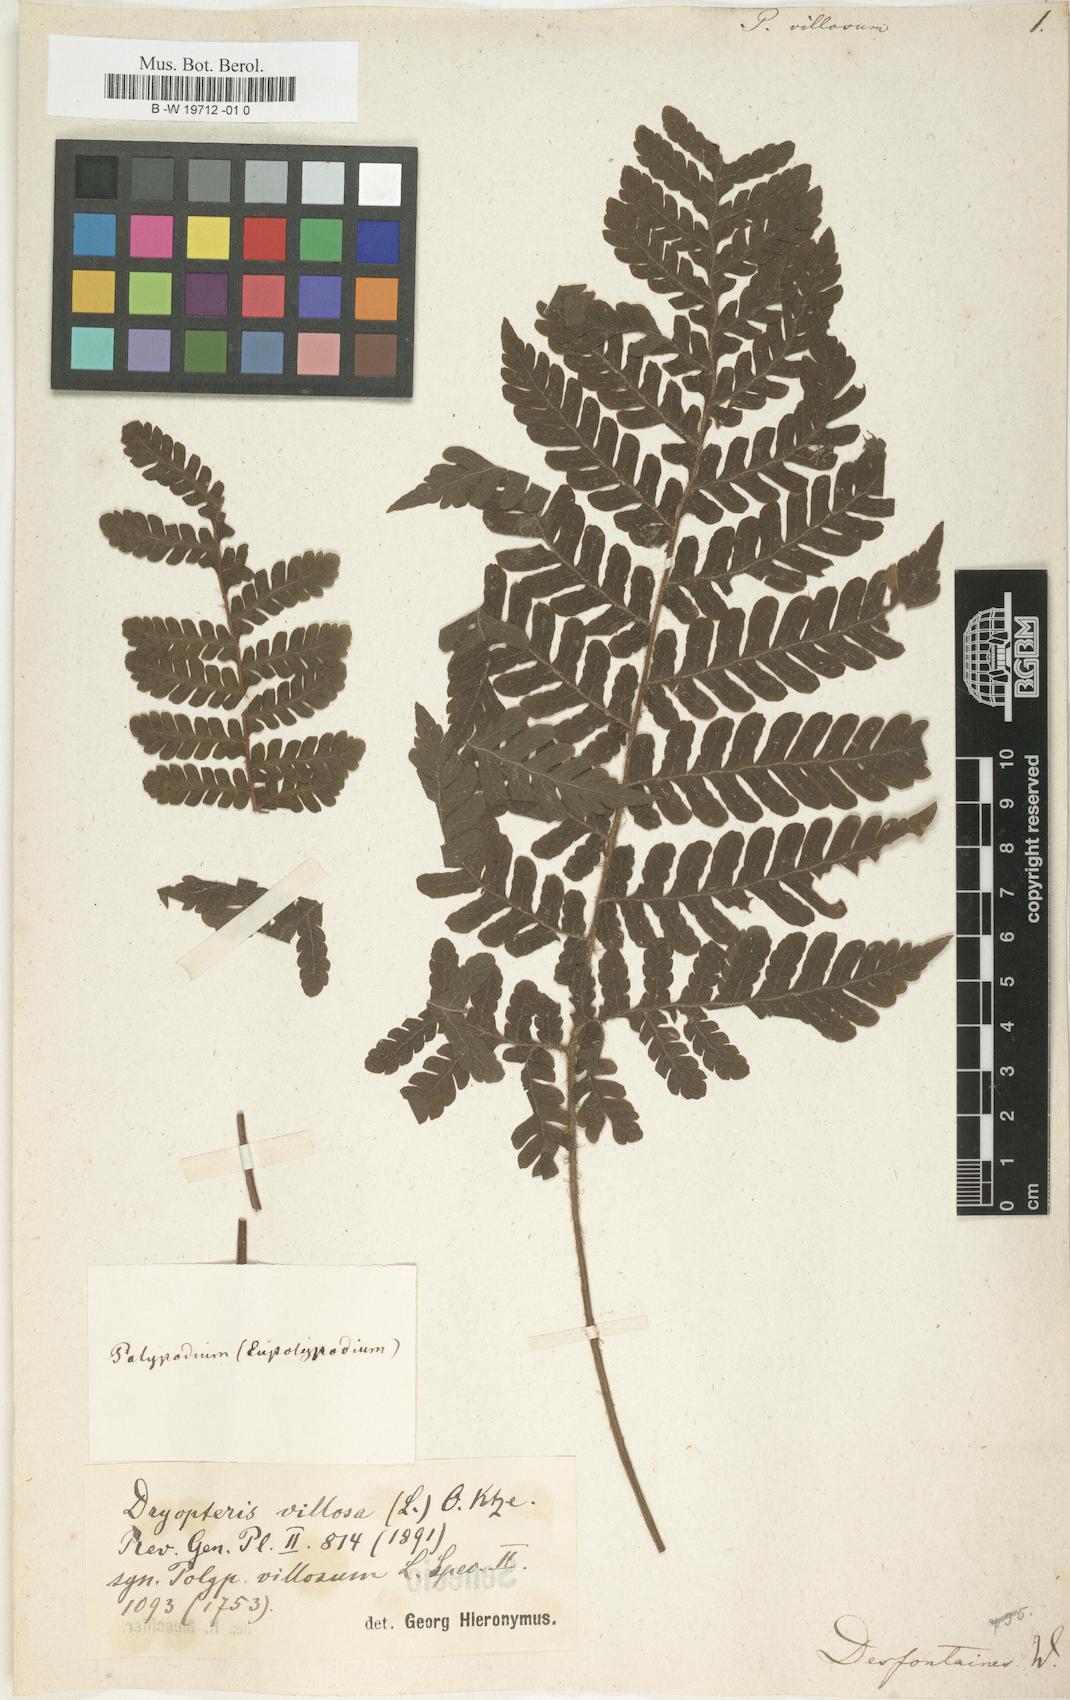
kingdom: Plantae
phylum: Tracheophyta
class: Polypodiopsida
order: Polypodiales
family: Dryopteridaceae
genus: Megalastrum
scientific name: Megalastrum villosum
